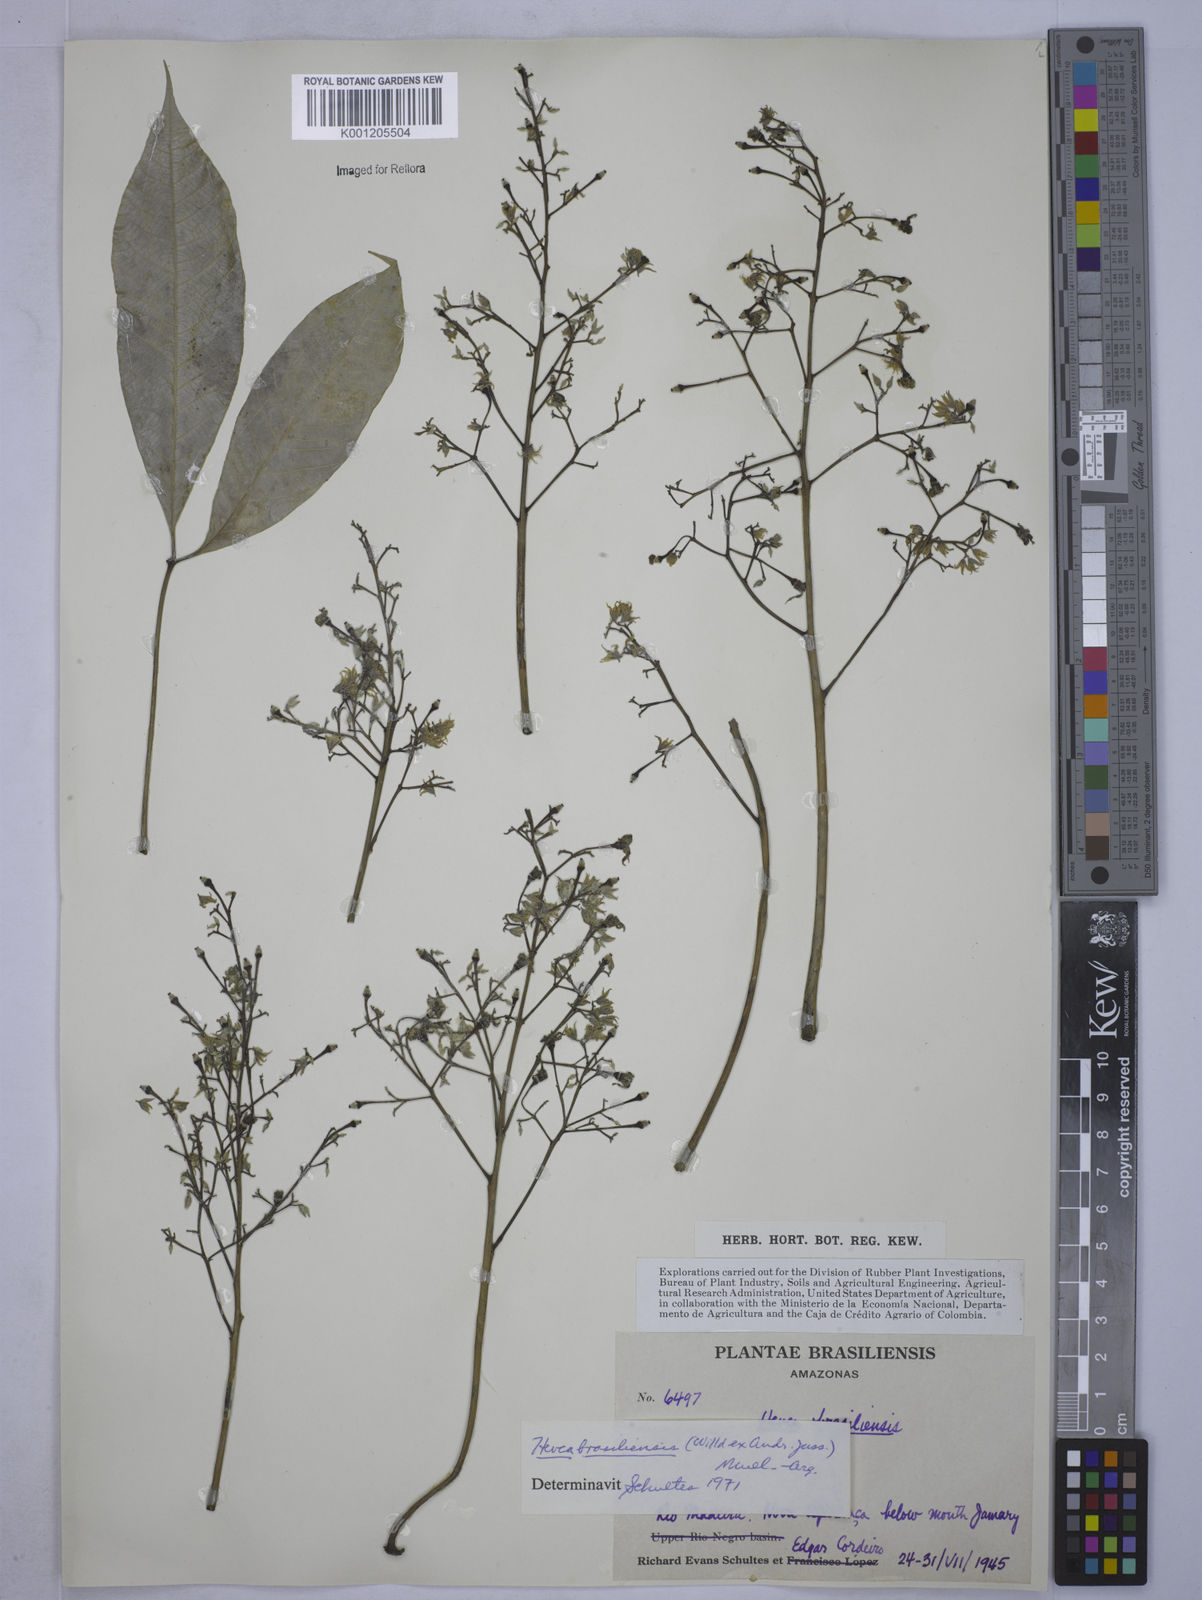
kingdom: Plantae
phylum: Tracheophyta
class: Magnoliopsida
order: Malpighiales
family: Euphorbiaceae
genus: Hevea
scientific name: Hevea
